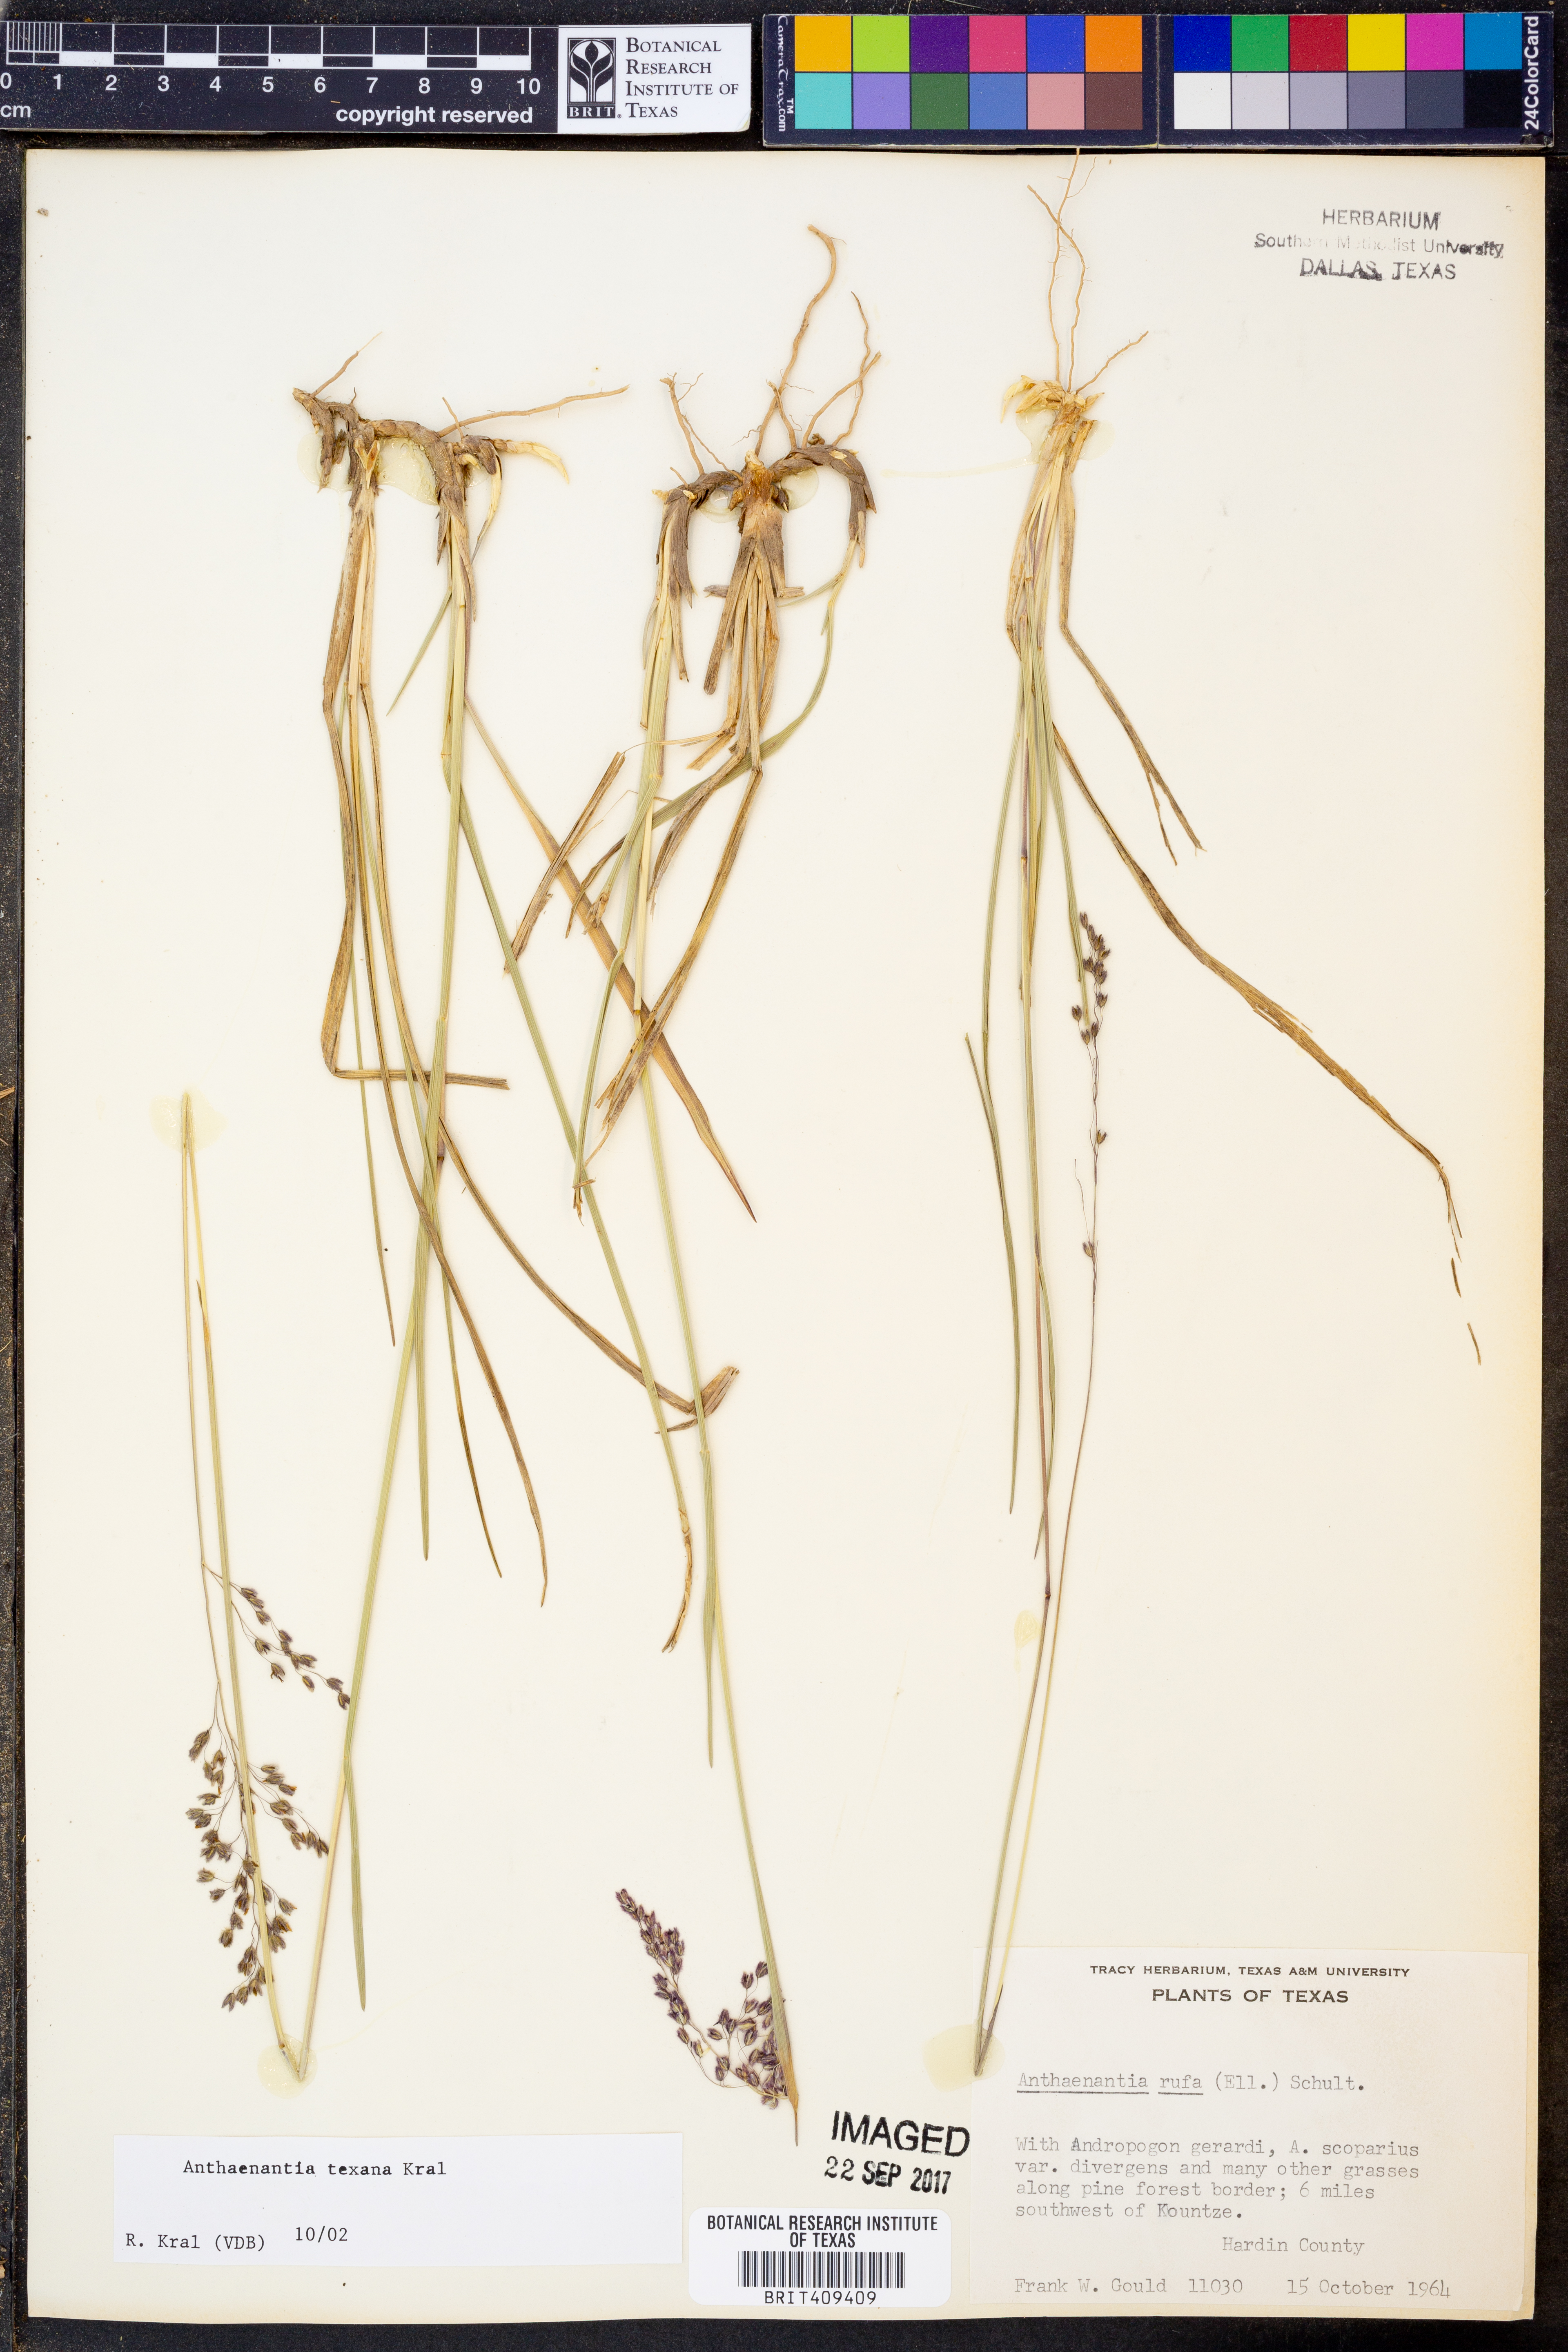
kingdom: Plantae
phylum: Tracheophyta
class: Liliopsida
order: Poales
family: Poaceae
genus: Anthenantia
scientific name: Anthenantia rufa
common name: Purple silkyscale
